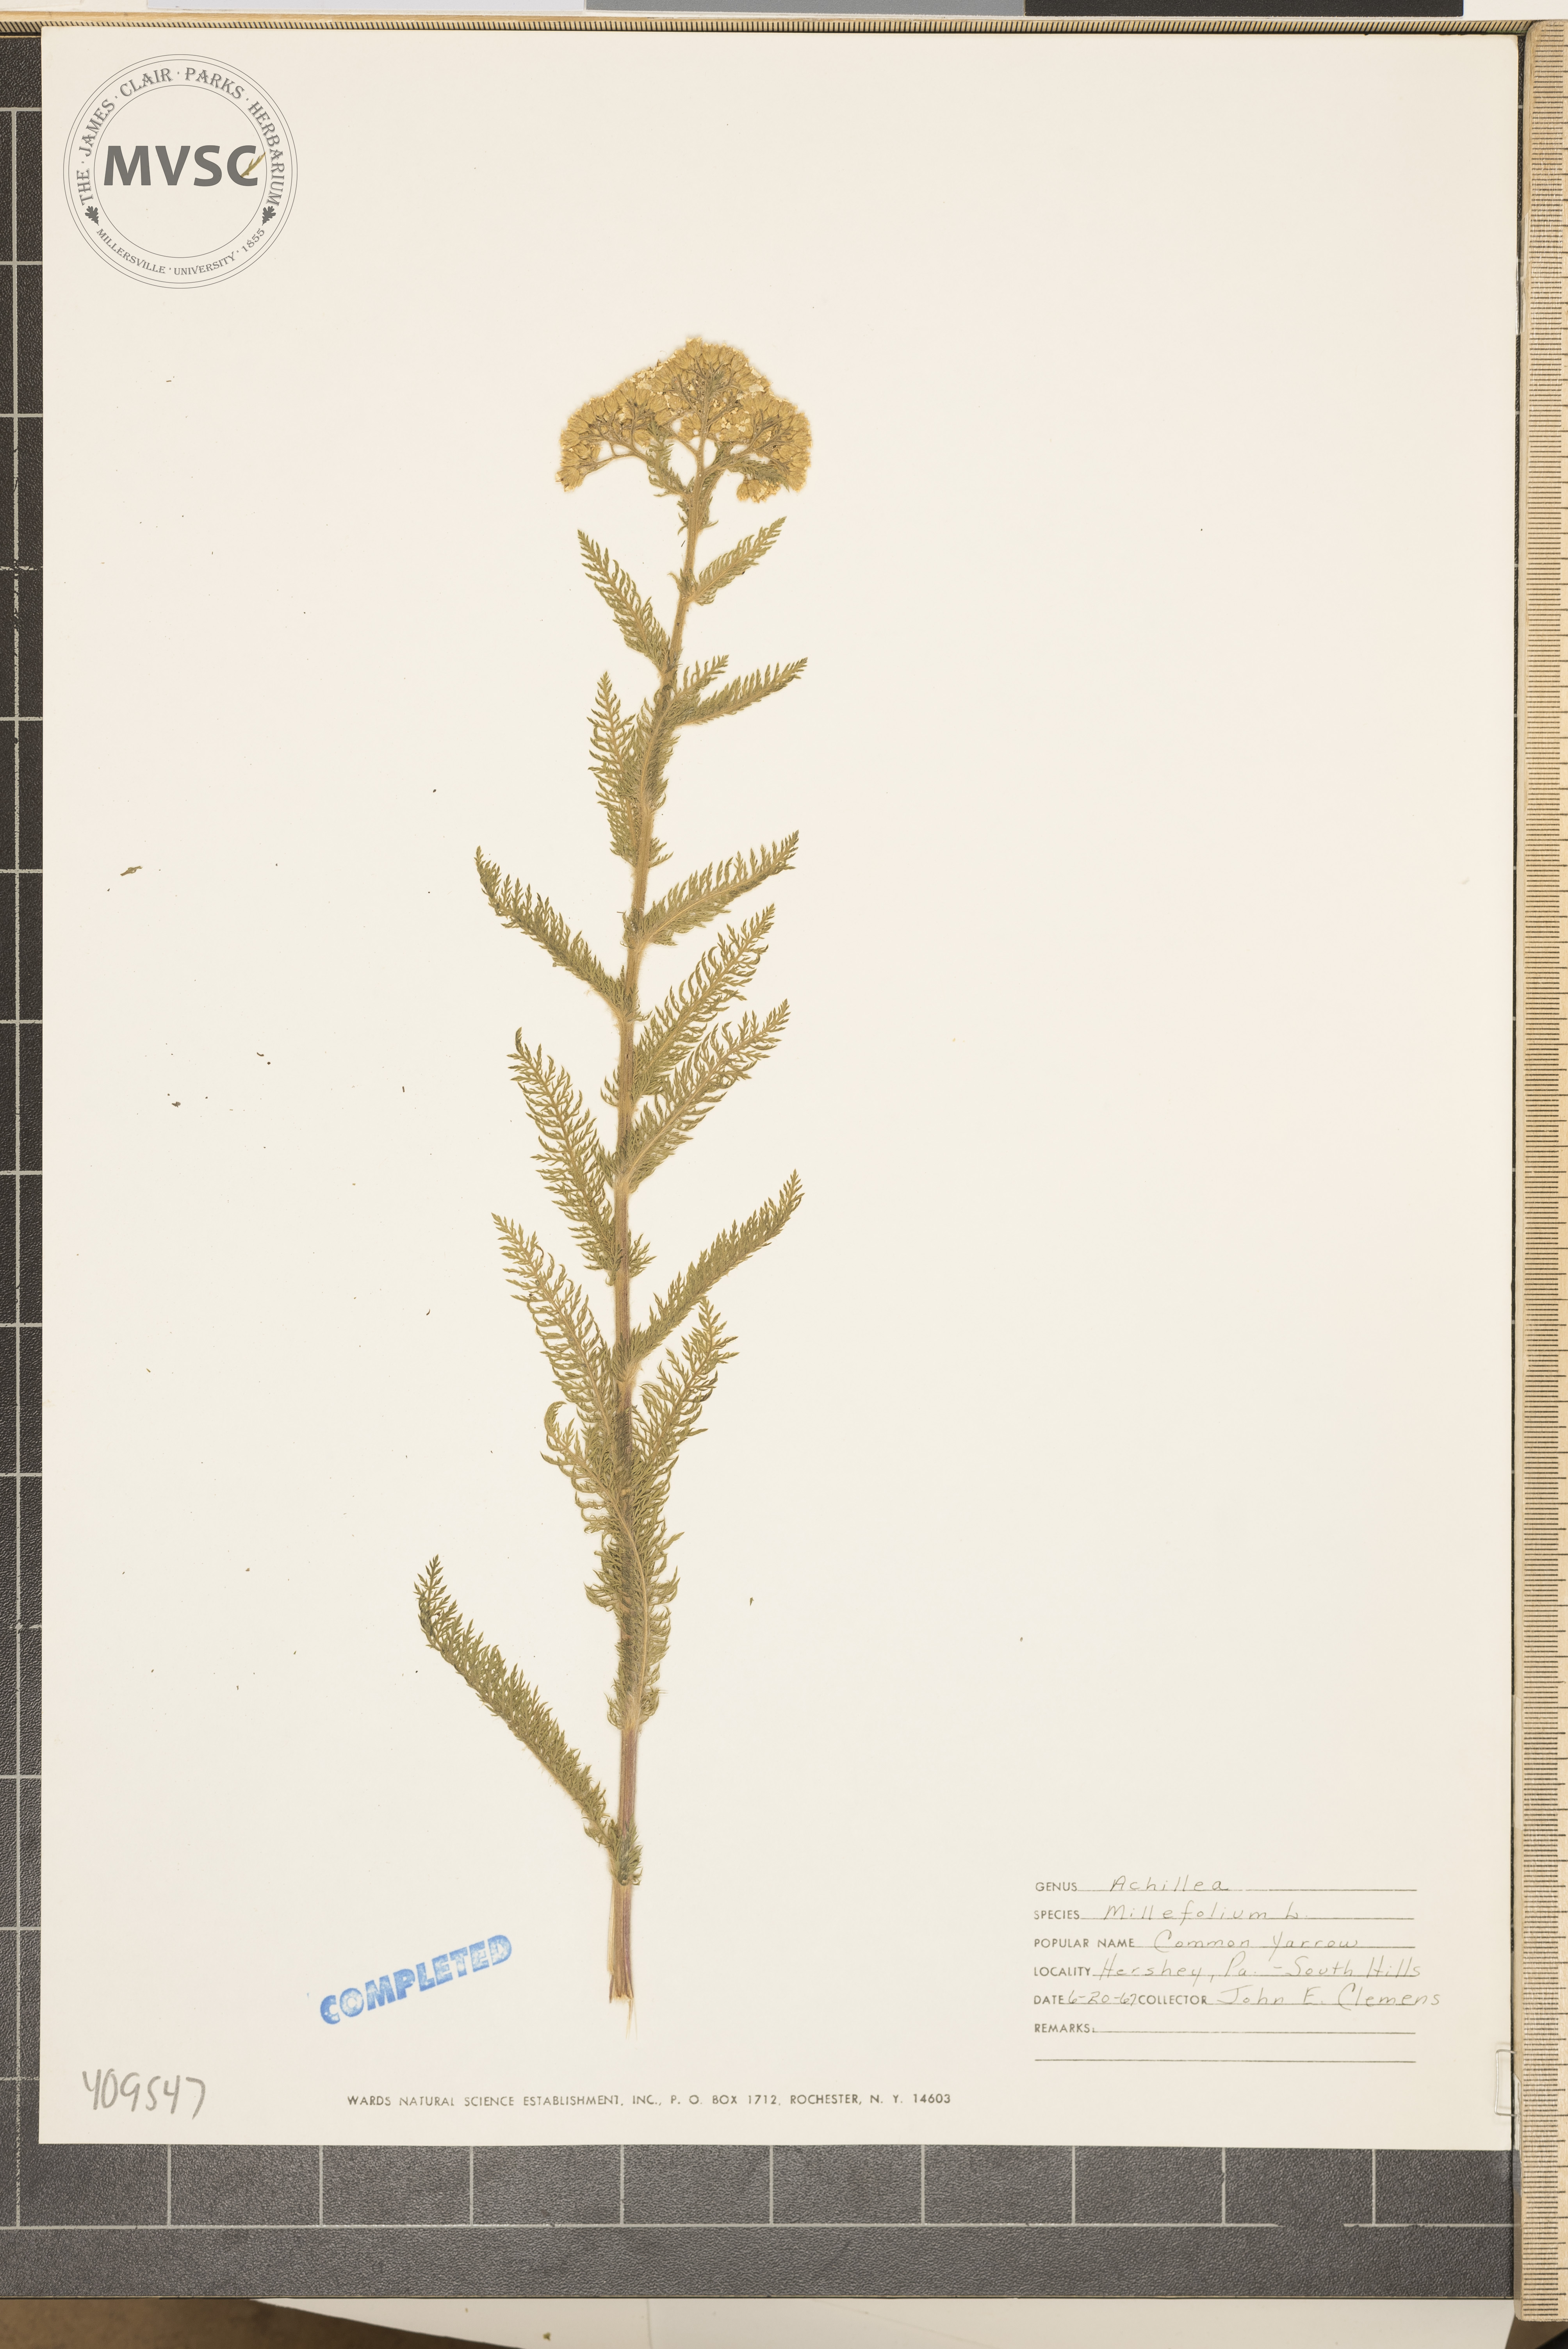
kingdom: Plantae
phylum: Tracheophyta
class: Magnoliopsida
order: Asterales
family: Asteraceae
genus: Achillea
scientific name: Achillea millefolium
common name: Yarrow
